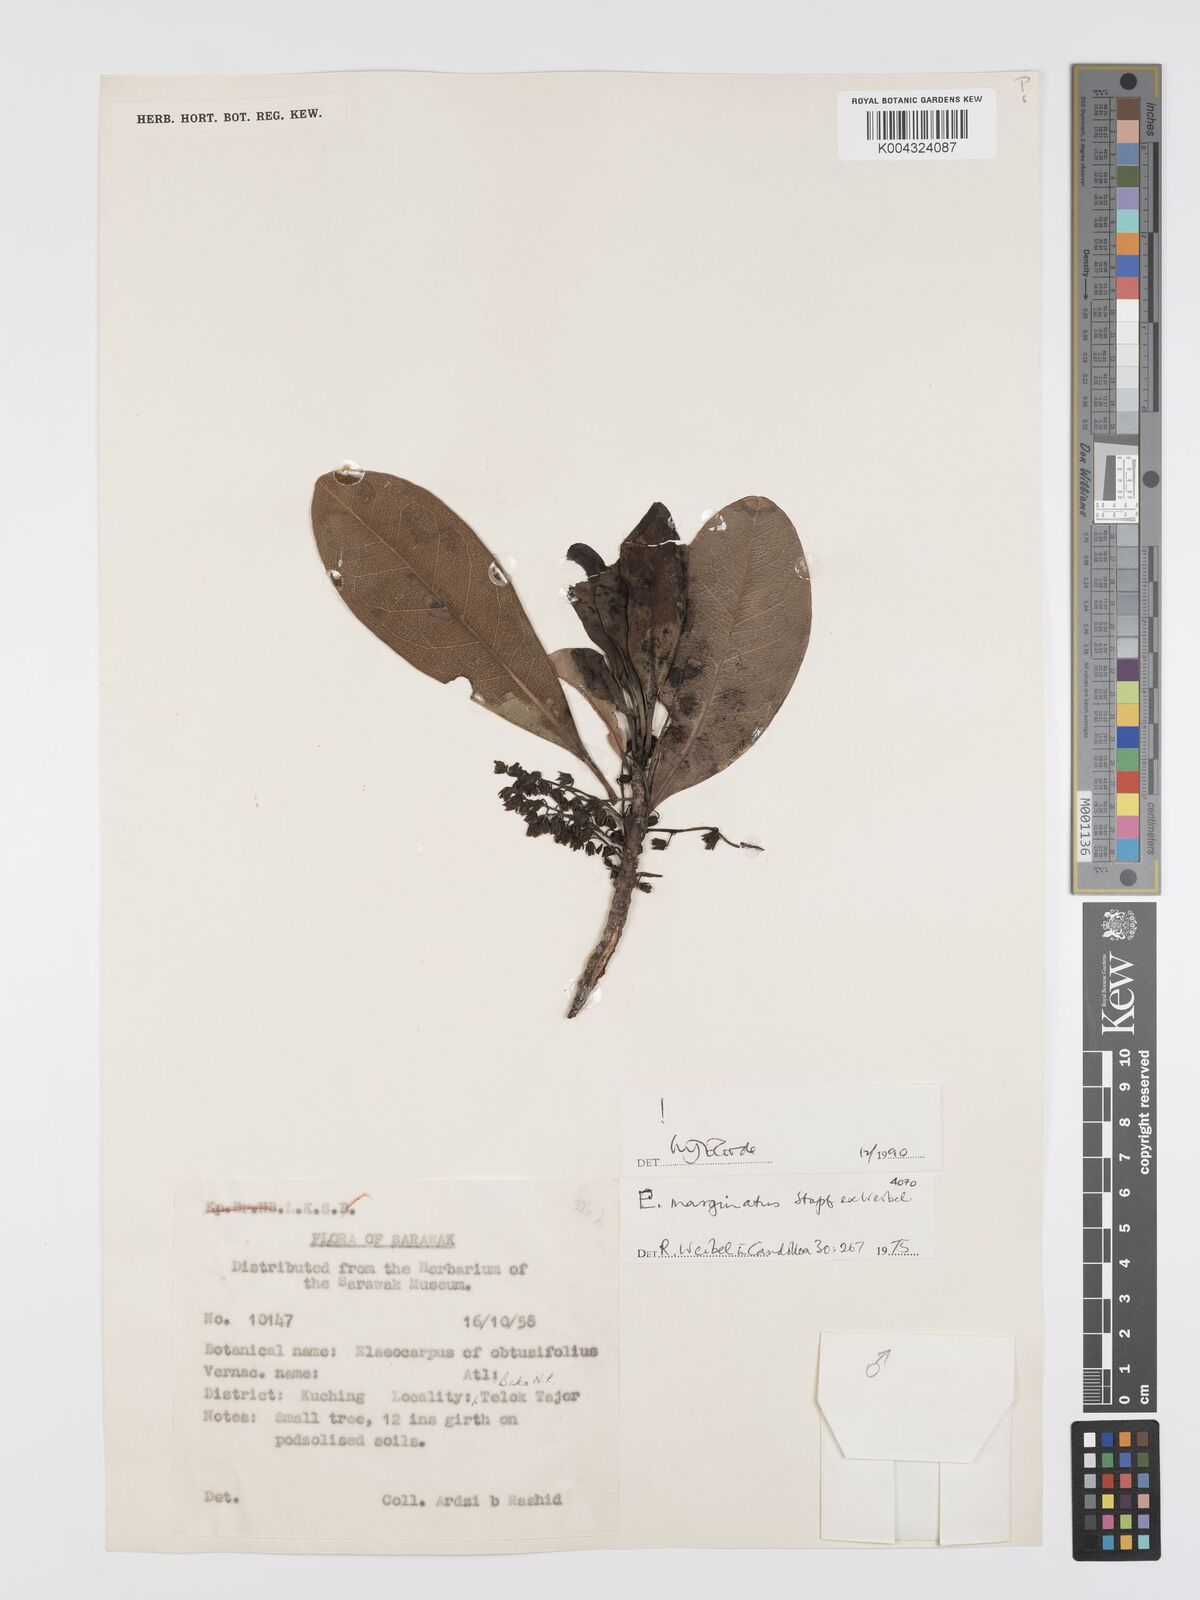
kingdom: Plantae
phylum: Tracheophyta
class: Magnoliopsida
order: Oxalidales
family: Elaeocarpaceae
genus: Elaeocarpus
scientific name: Elaeocarpus marginatus
